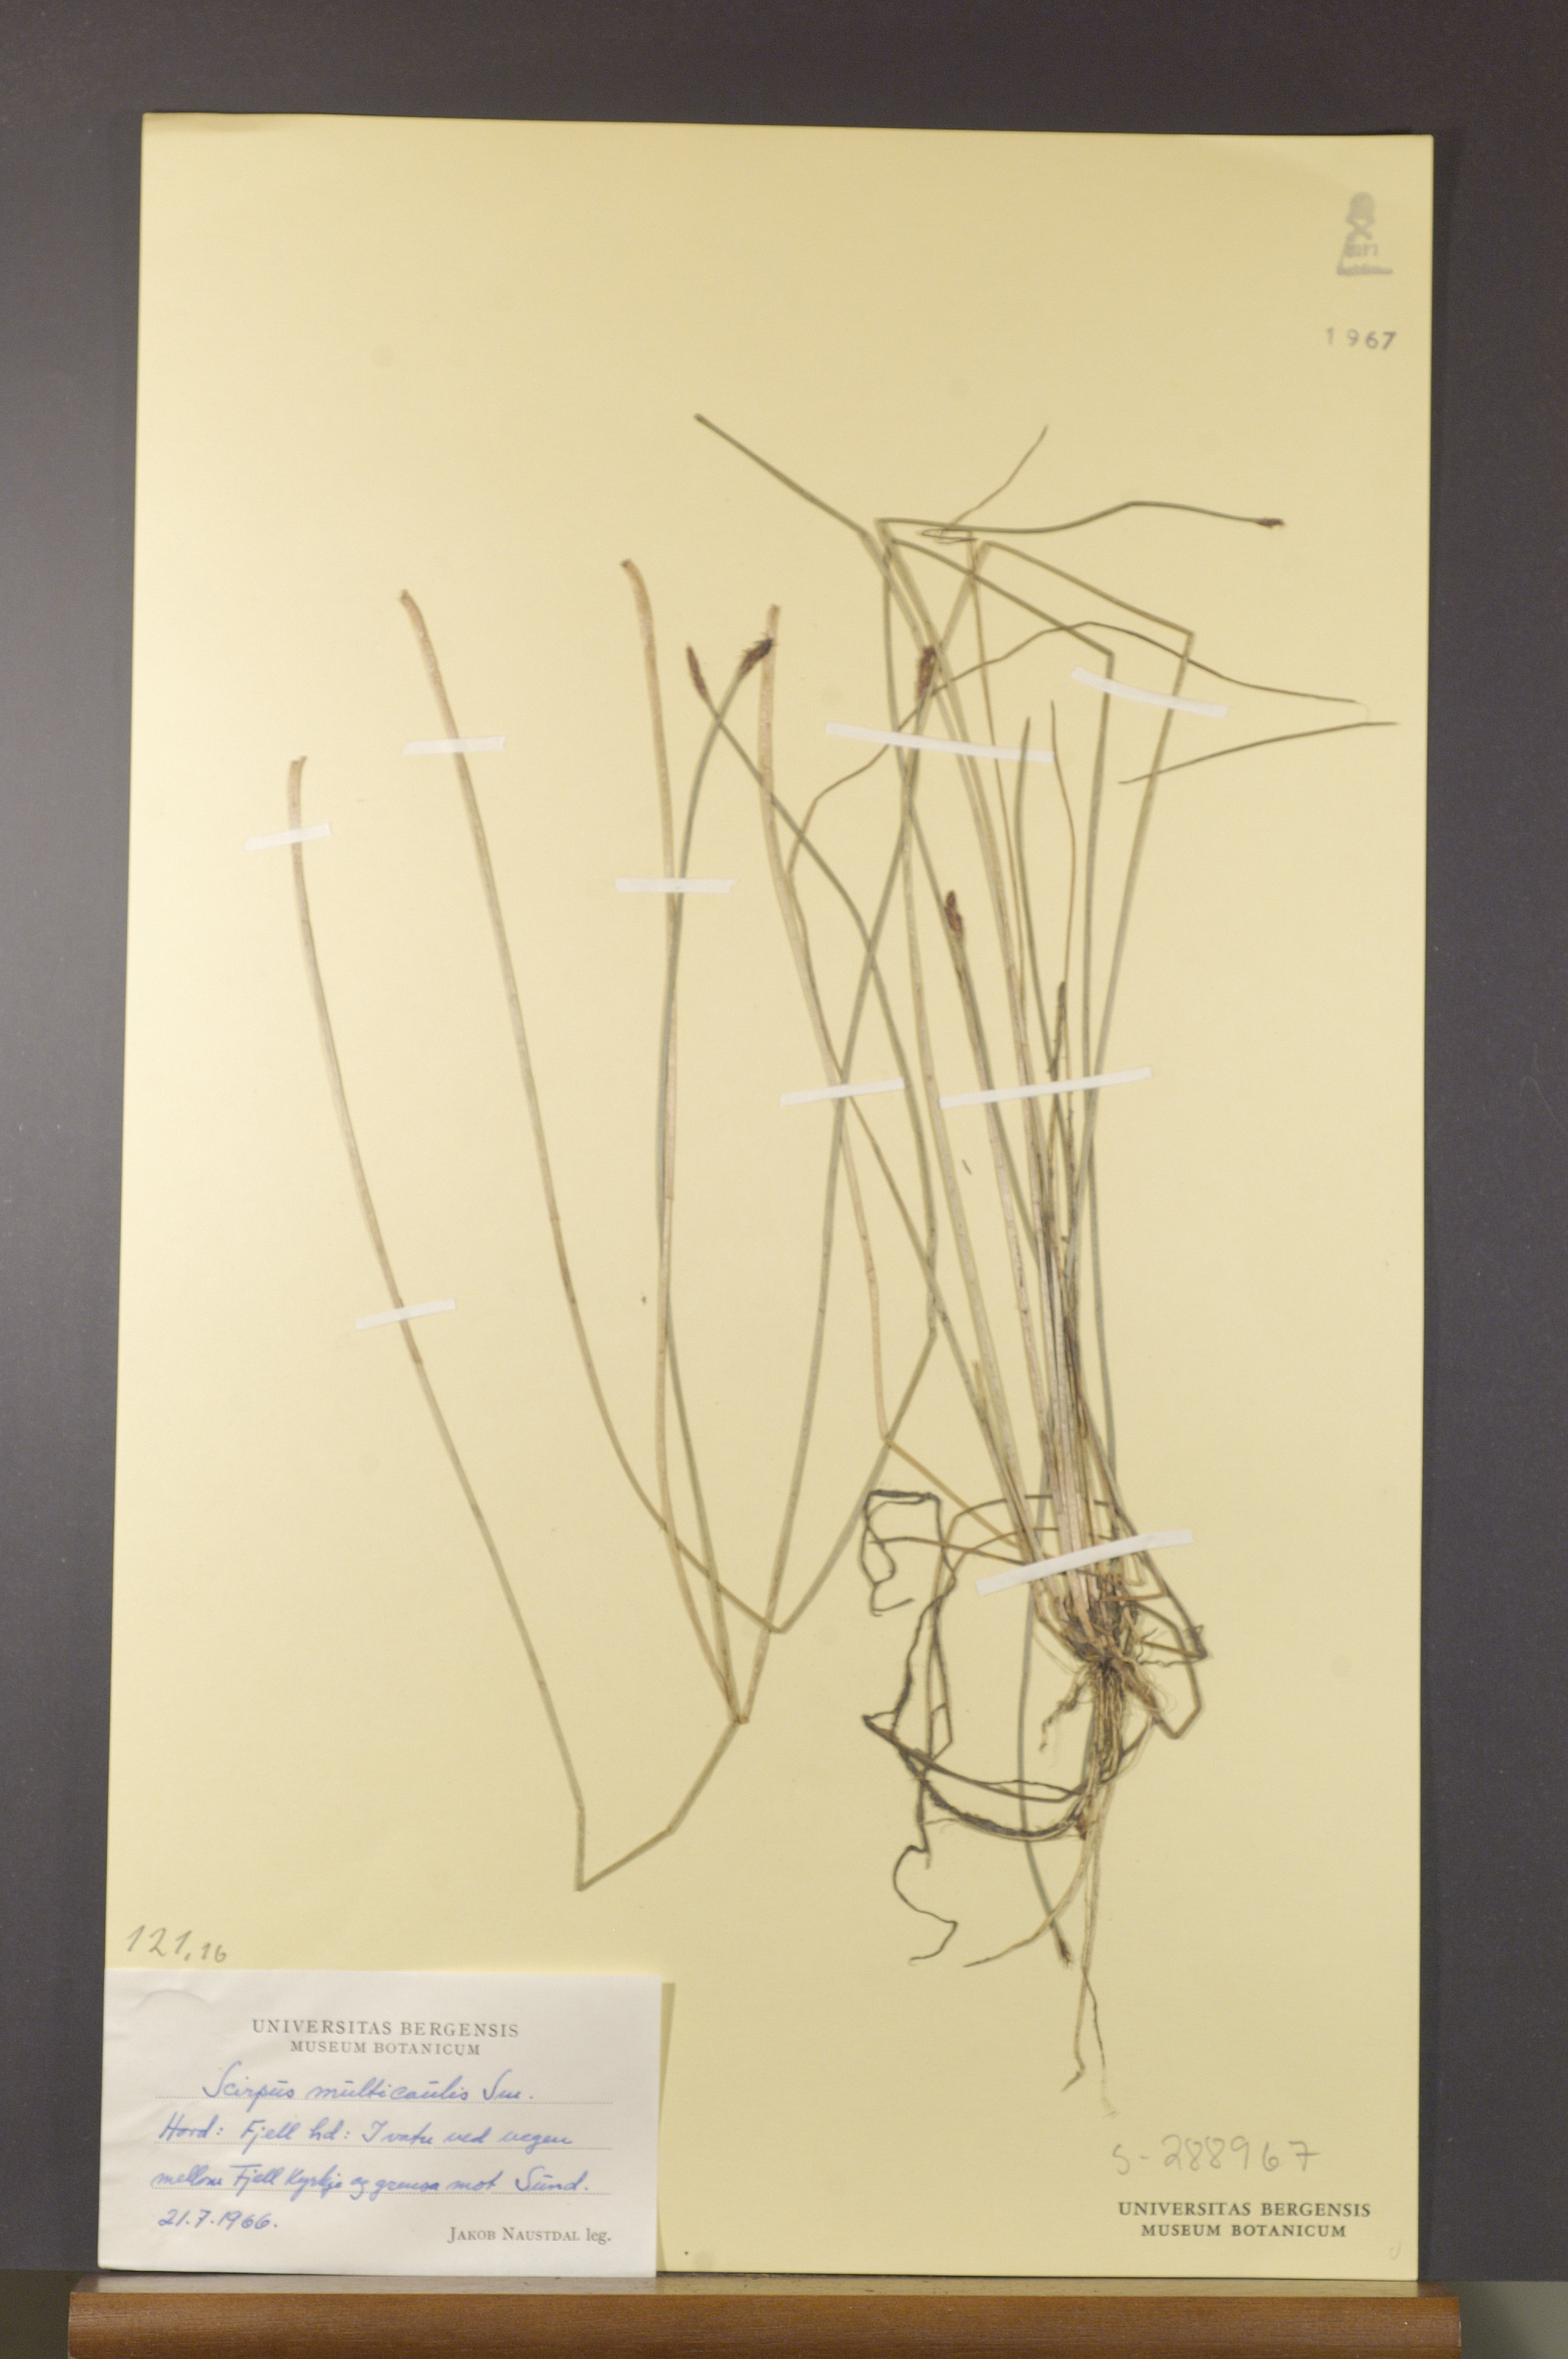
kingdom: Plantae
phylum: Tracheophyta
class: Liliopsida
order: Poales
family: Cyperaceae
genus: Eleocharis
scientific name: Eleocharis multicaulis
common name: Many-stalked spike-rush
